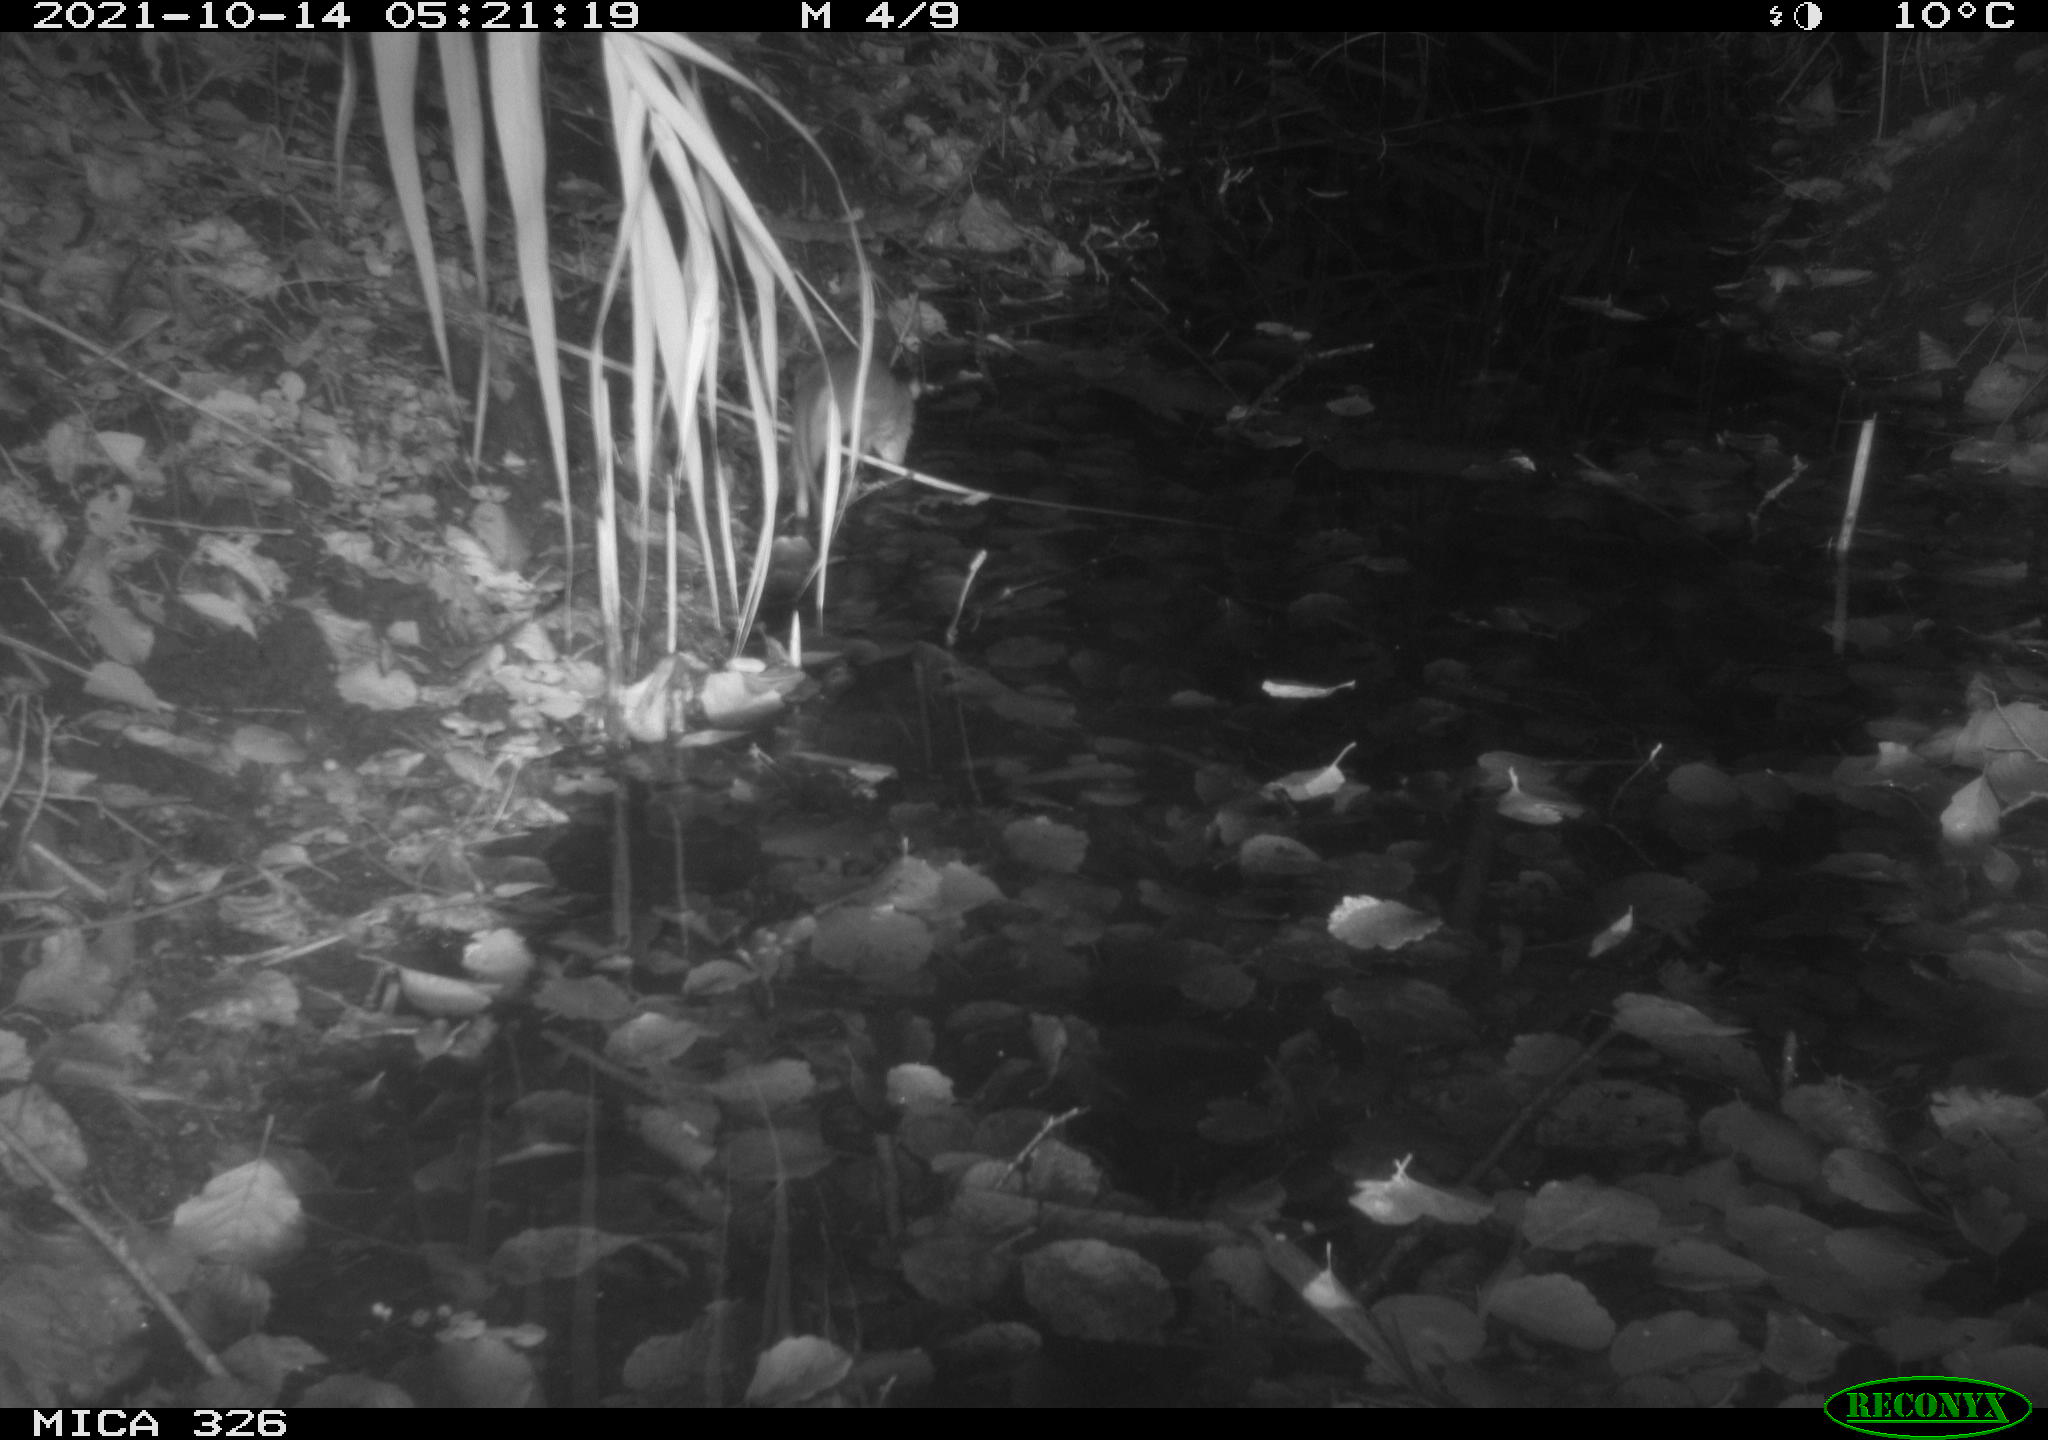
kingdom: Animalia
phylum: Chordata
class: Mammalia
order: Rodentia
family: Muridae
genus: Rattus
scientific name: Rattus norvegicus
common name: Brown rat
